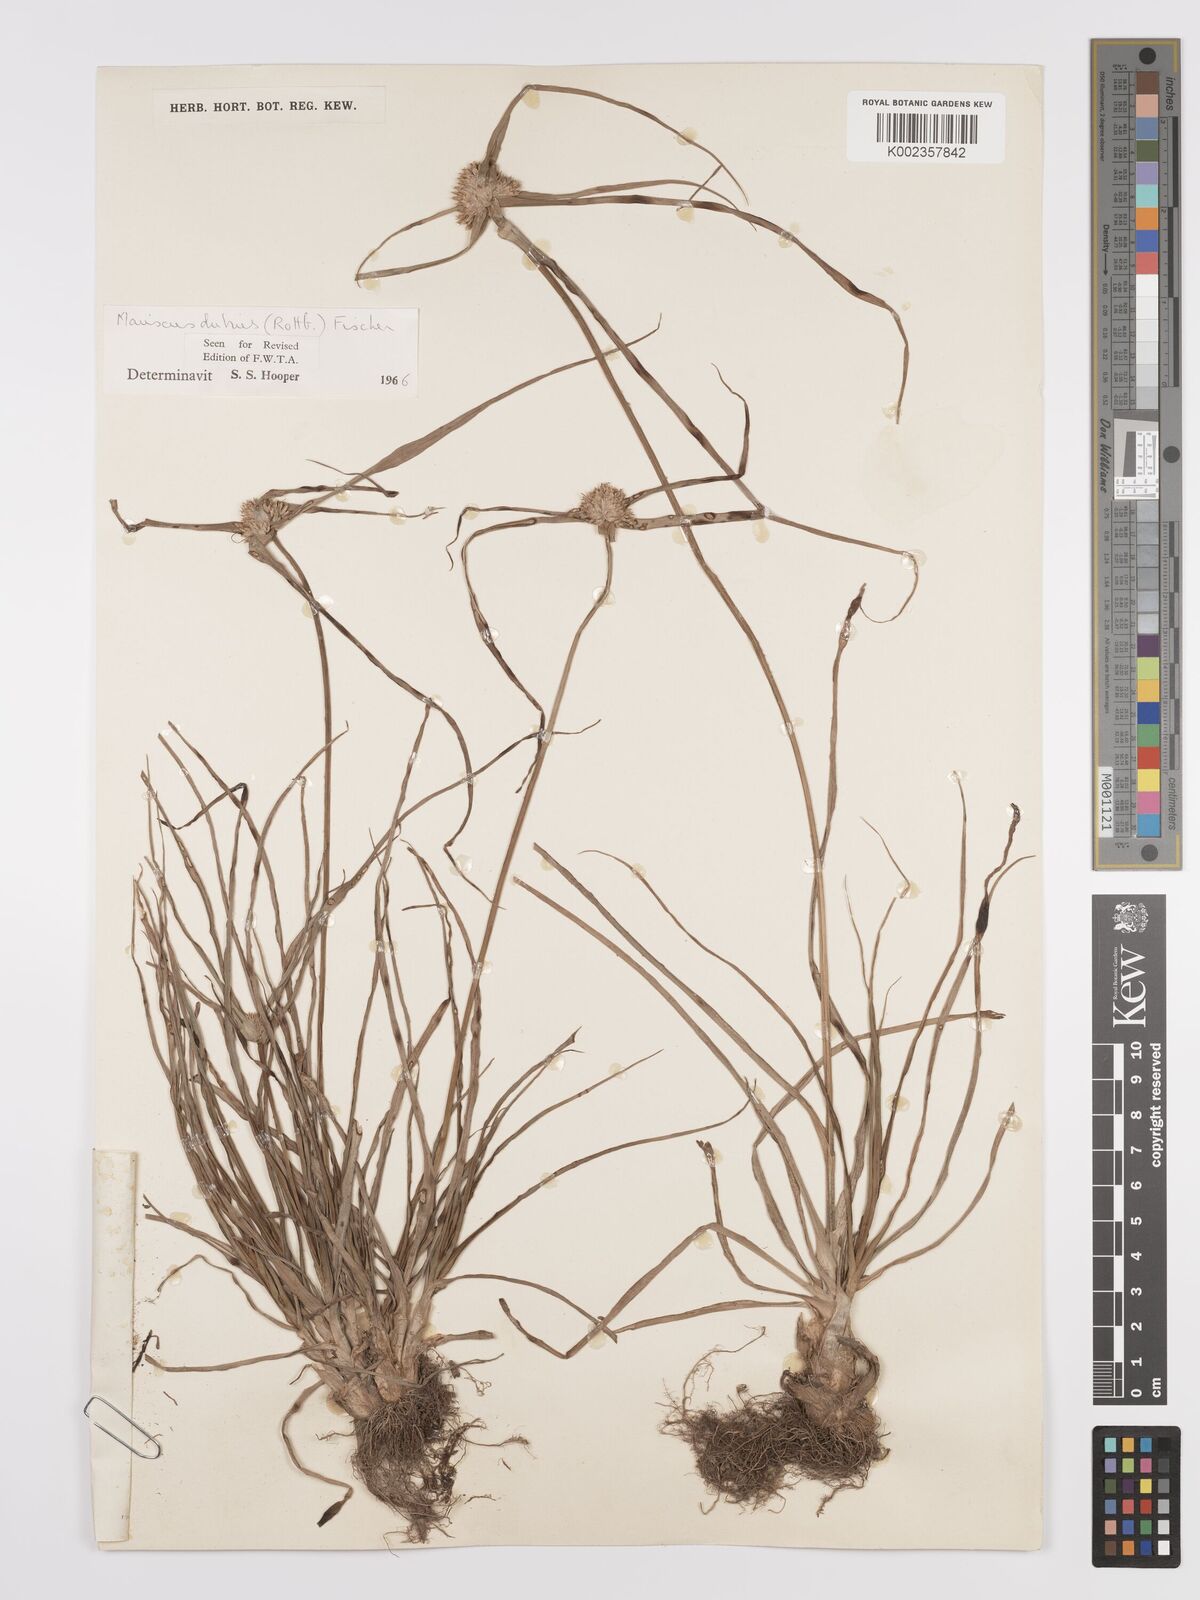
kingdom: Plantae
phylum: Tracheophyta
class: Liliopsida
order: Poales
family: Cyperaceae
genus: Cyperus
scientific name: Cyperus dubius
